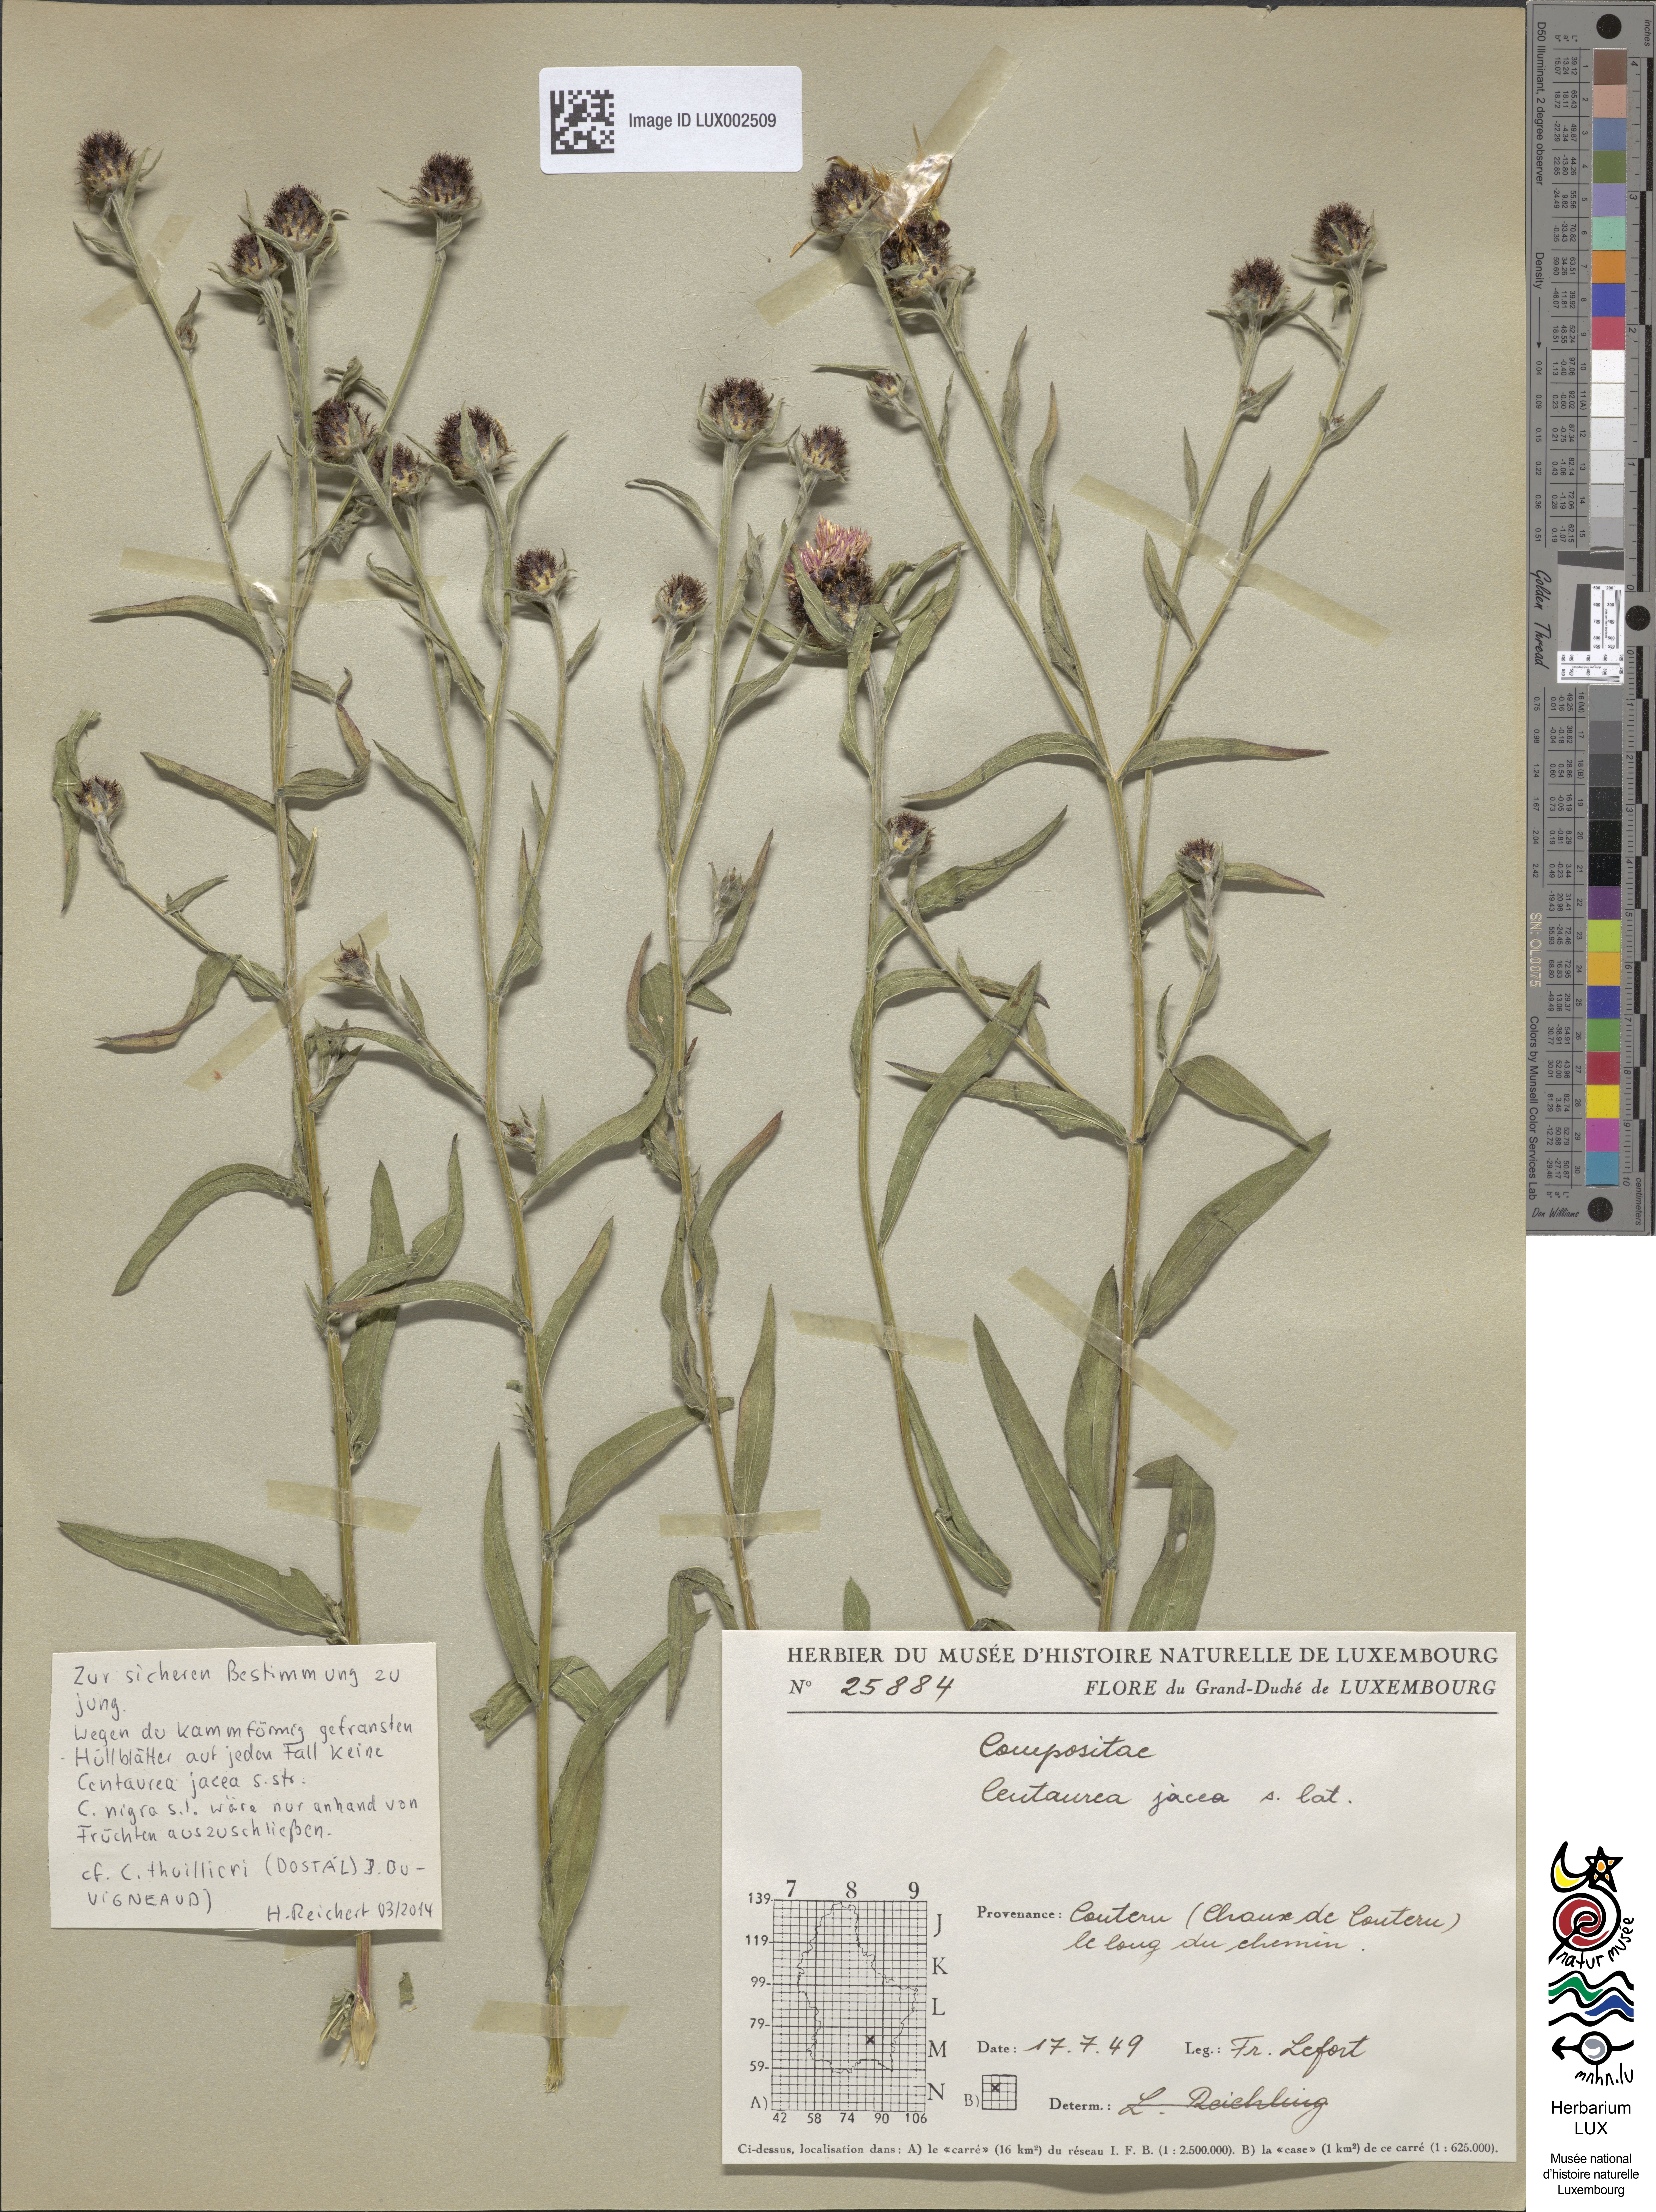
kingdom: Plantae
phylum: Tracheophyta
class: Magnoliopsida
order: Asterales
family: Asteraceae
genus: Centaurea
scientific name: Centaurea jacea
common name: Brown knapweed
